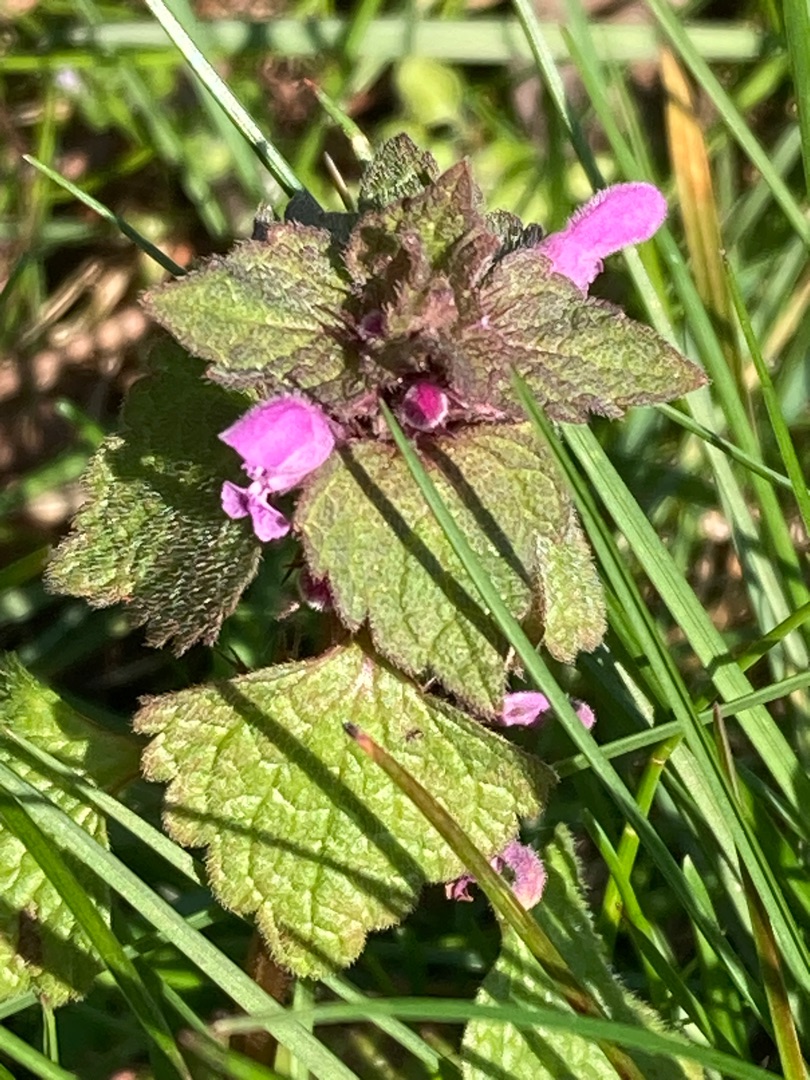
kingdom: Plantae
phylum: Tracheophyta
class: Magnoliopsida
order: Lamiales
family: Lamiaceae
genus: Lamium
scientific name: Lamium purpureum
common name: Rød tvetand
